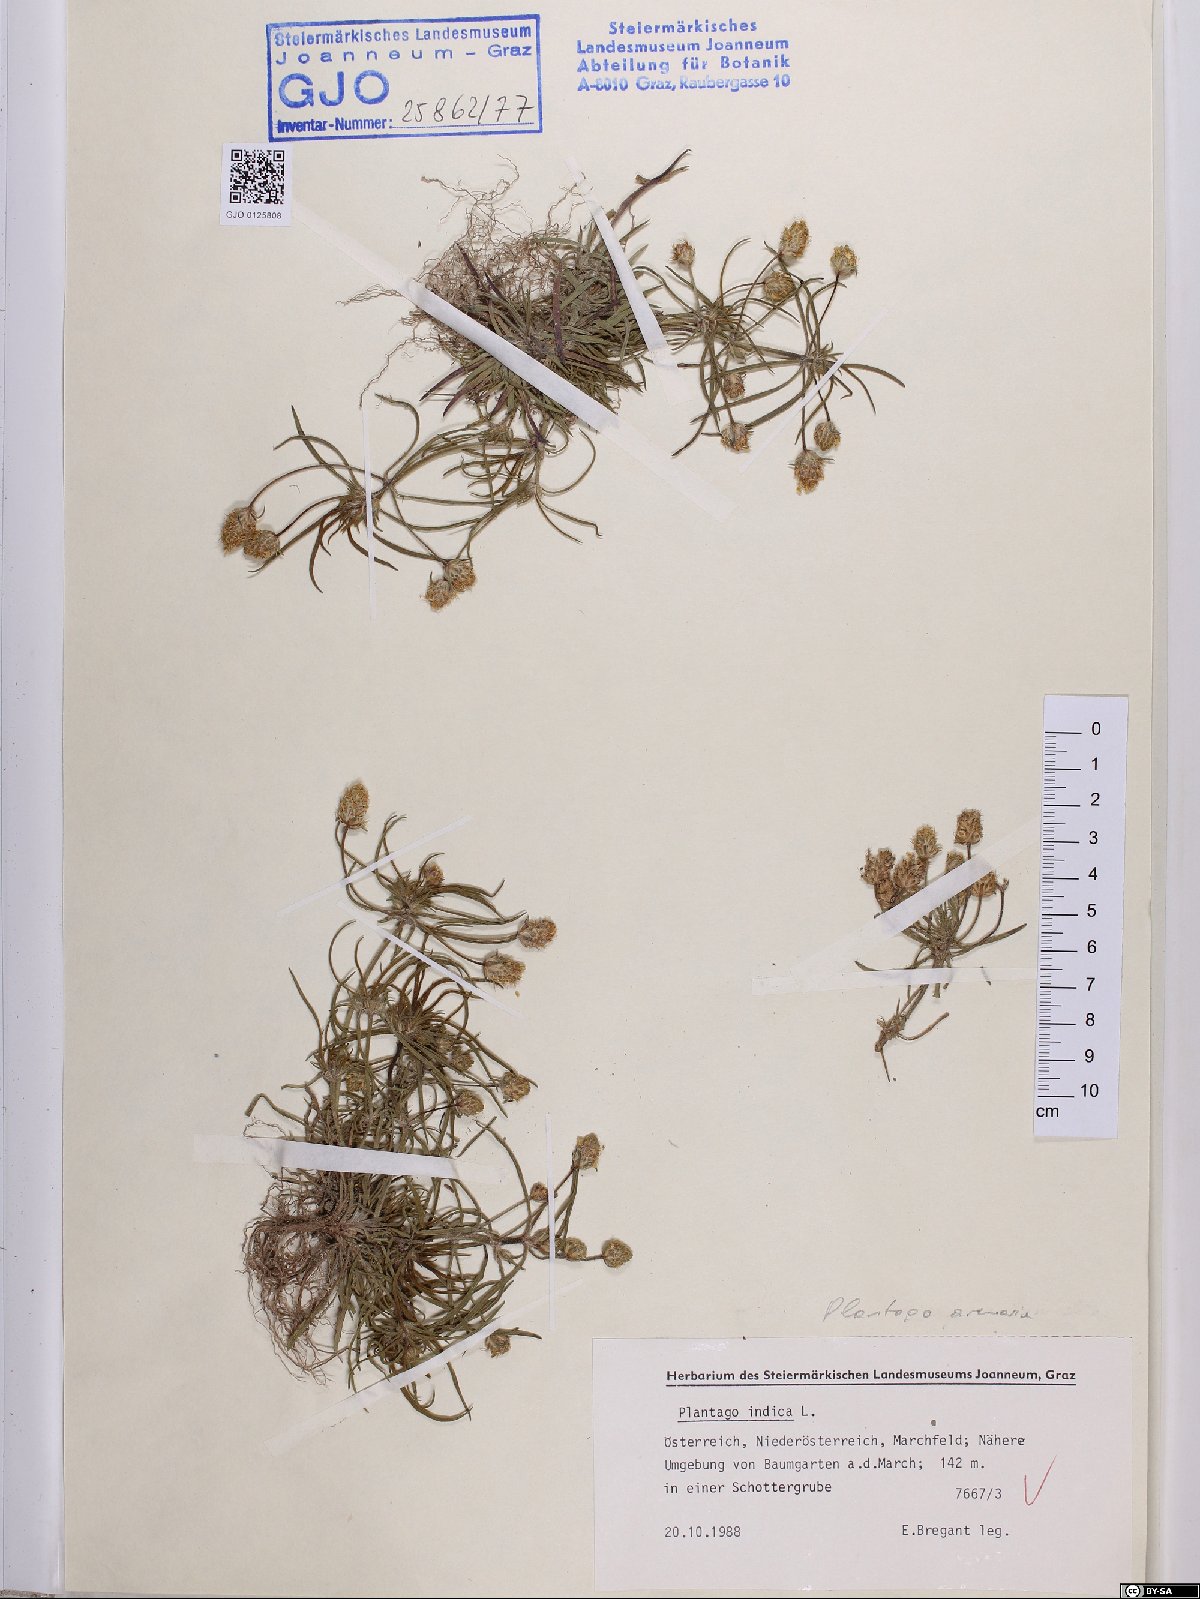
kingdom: Plantae
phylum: Tracheophyta
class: Magnoliopsida
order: Lamiales
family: Plantaginaceae
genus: Plantago
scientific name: Plantago arenaria
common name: Branched plantain
